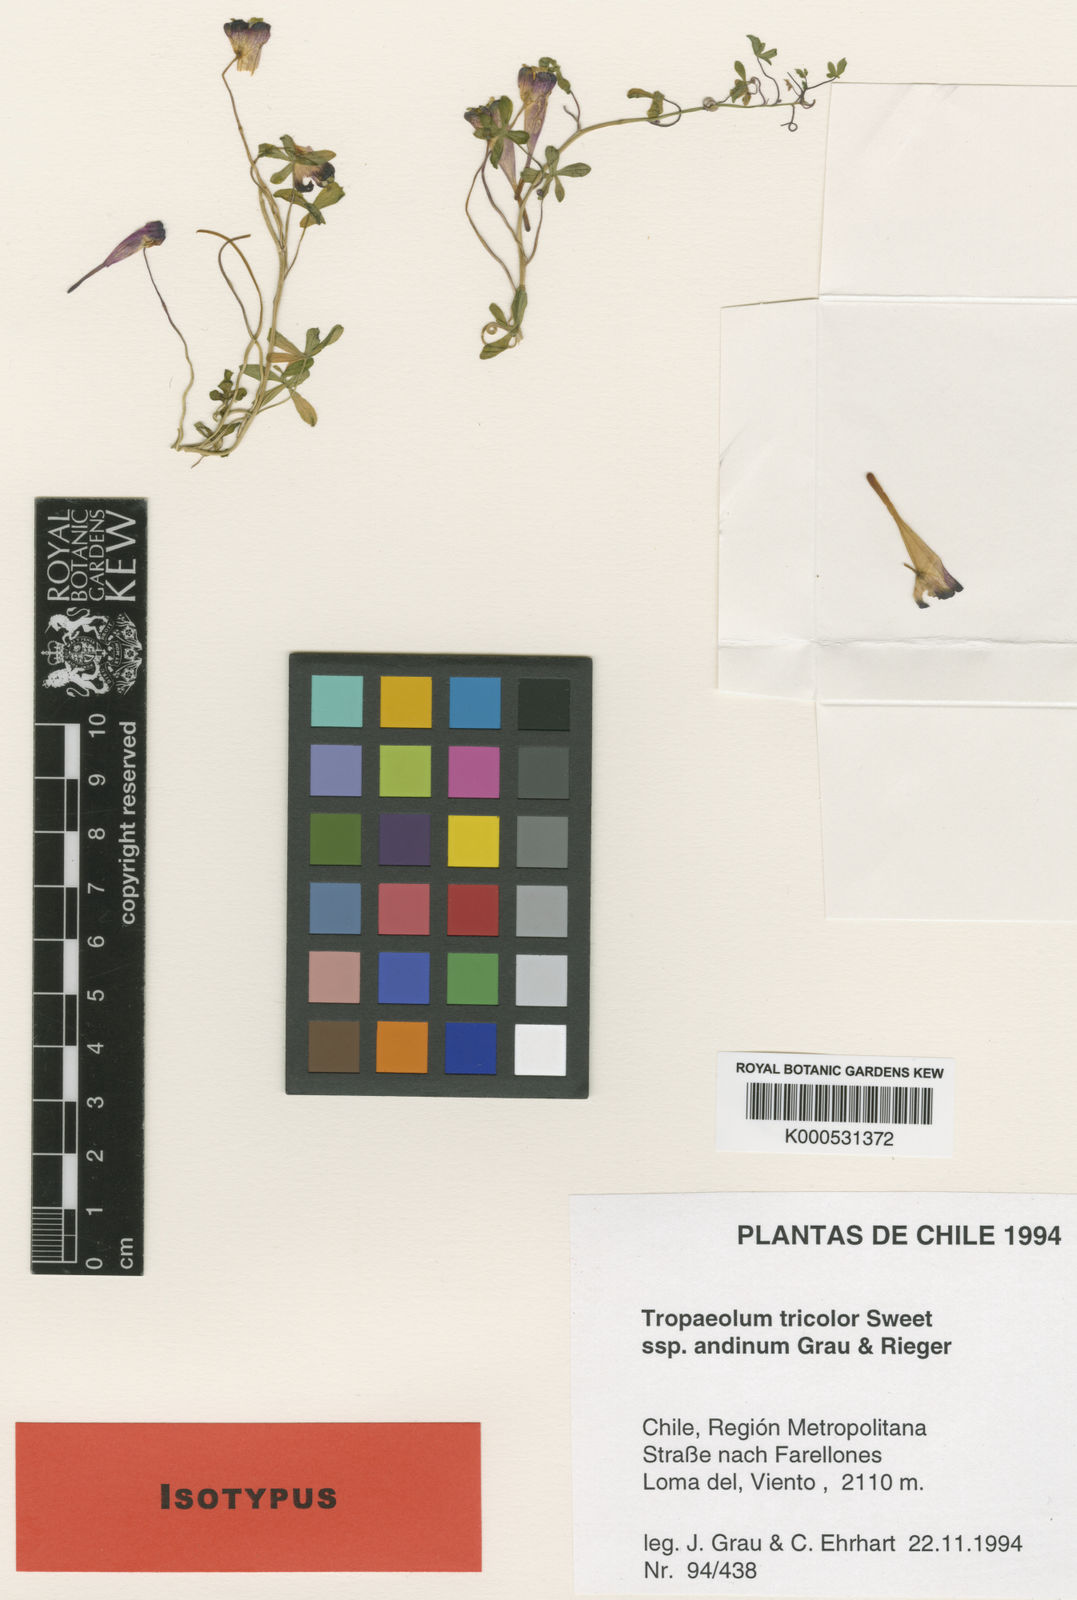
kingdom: Plantae
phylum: Tracheophyta
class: Magnoliopsida
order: Brassicales
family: Tropaeolaceae
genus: Tropaeolum
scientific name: Tropaeolum tricolor
